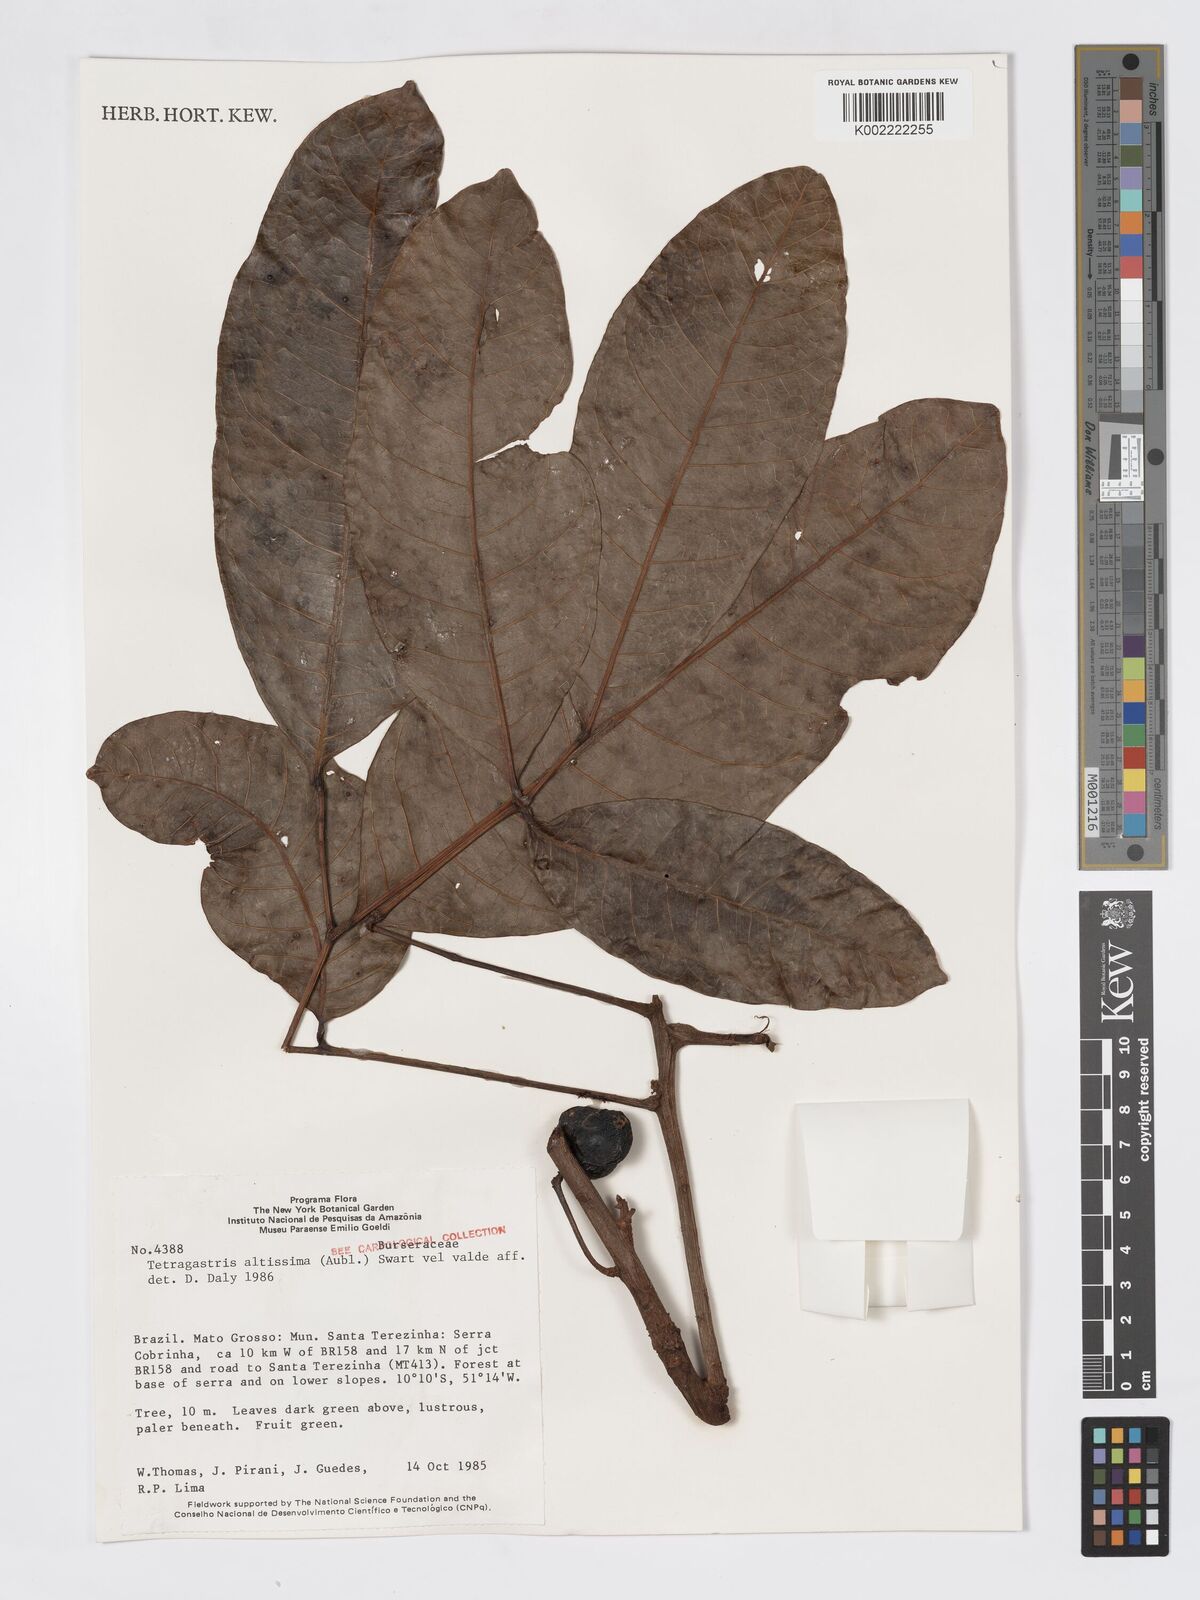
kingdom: Plantae
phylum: Tracheophyta
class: Magnoliopsida
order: Sapindales
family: Burseraceae
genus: Tetragastris
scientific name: Tetragastris altissima
